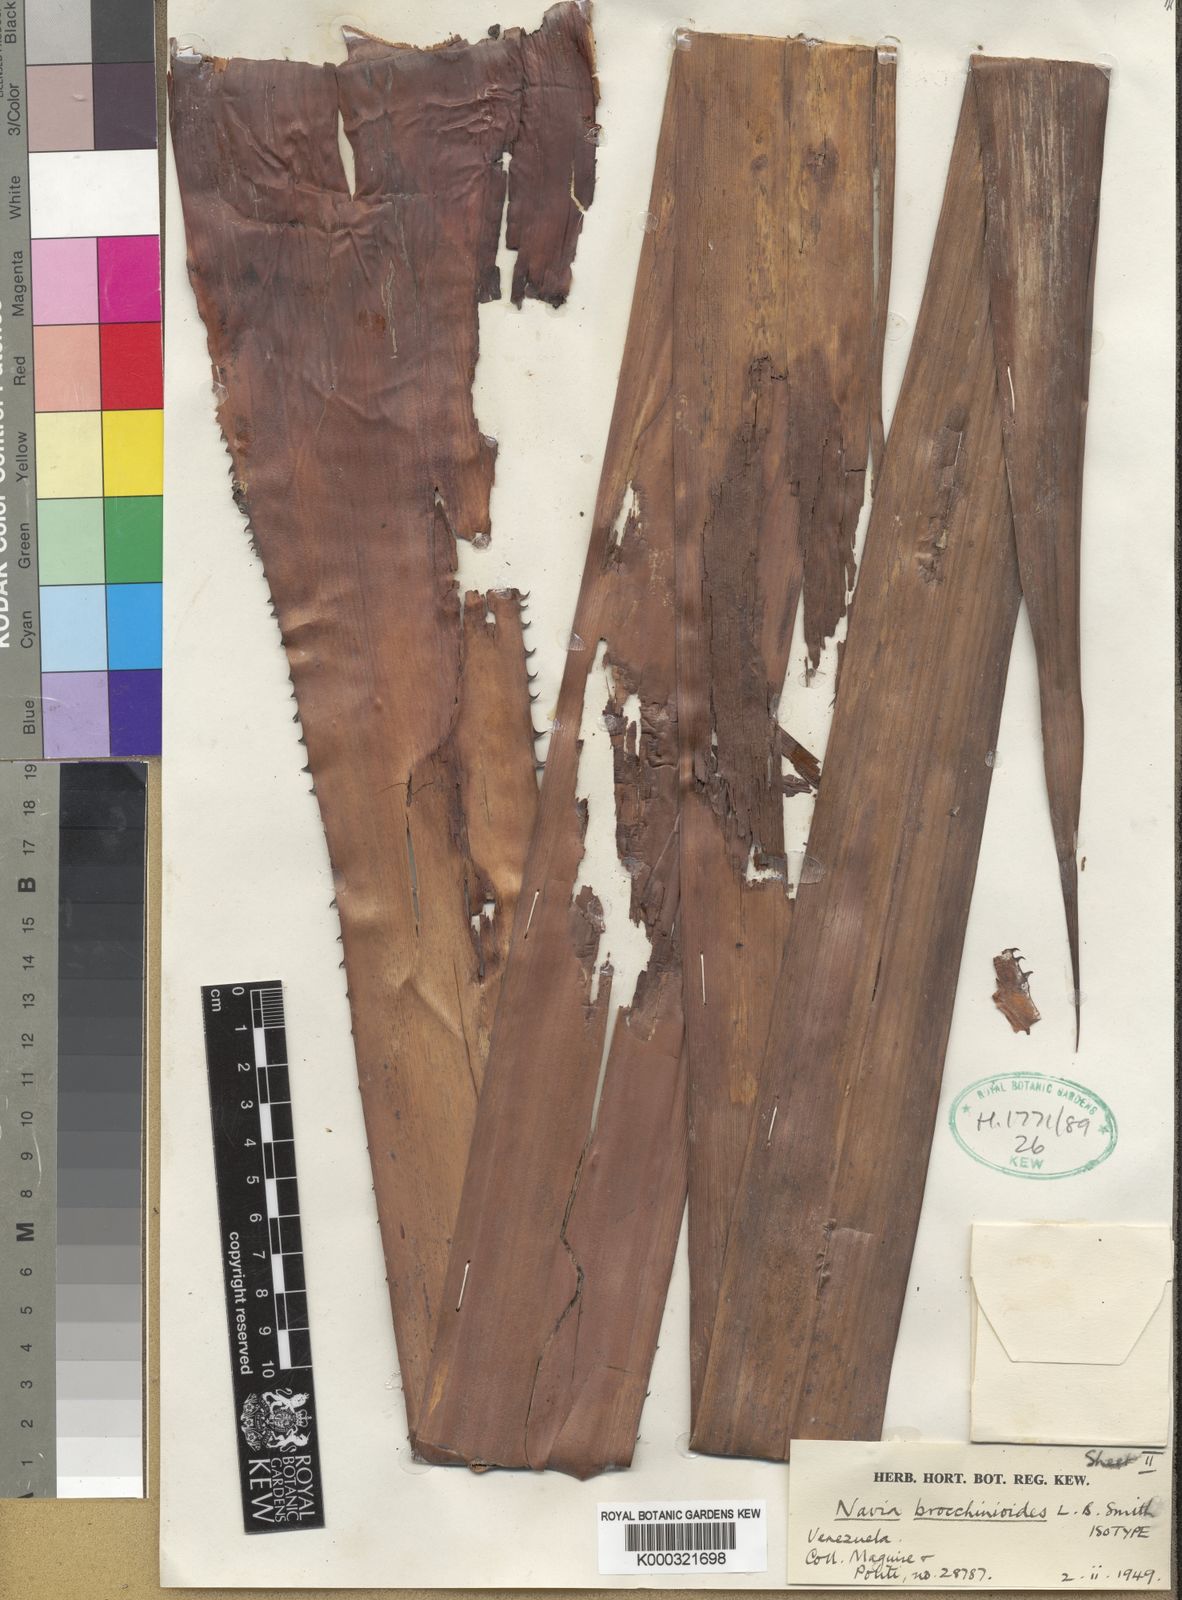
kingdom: Plantae
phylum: Tracheophyta
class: Liliopsida
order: Poales
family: Bromeliaceae
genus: Navia
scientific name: Navia brocchinioides
